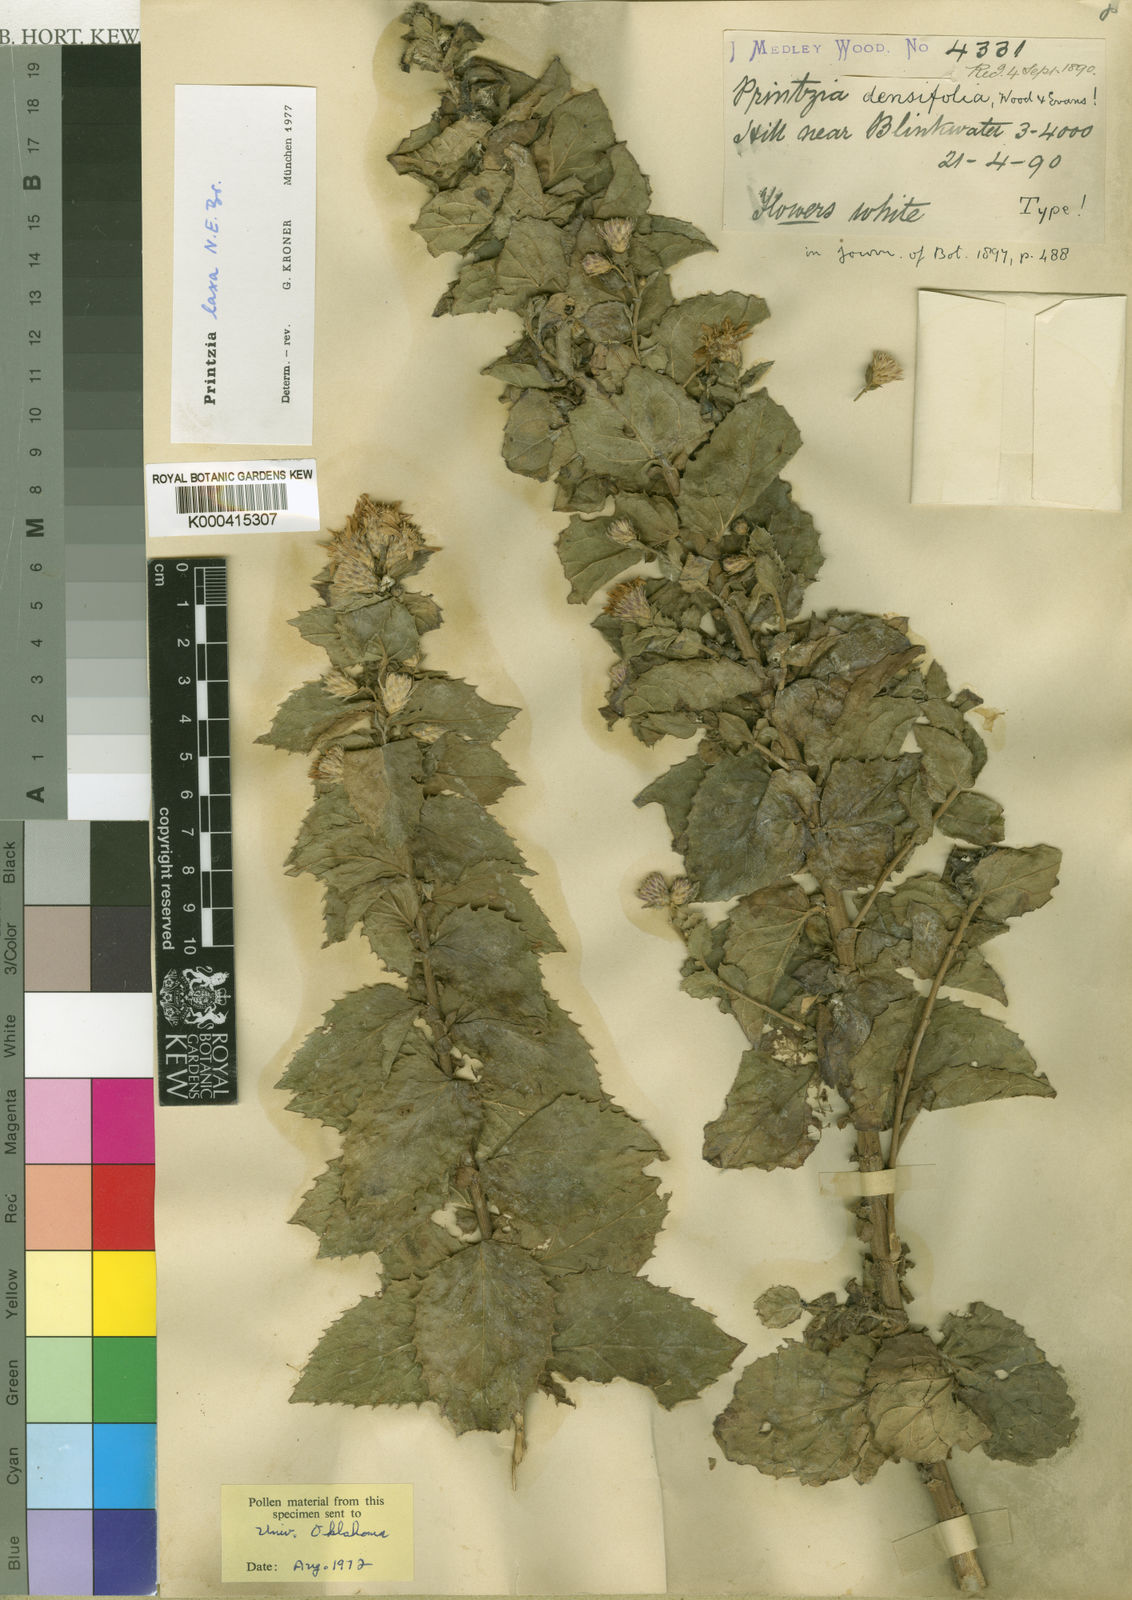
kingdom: Plantae
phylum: Tracheophyta
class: Magnoliopsida
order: Asterales
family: Asteraceae
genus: Printzia
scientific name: Printzia auriculata
